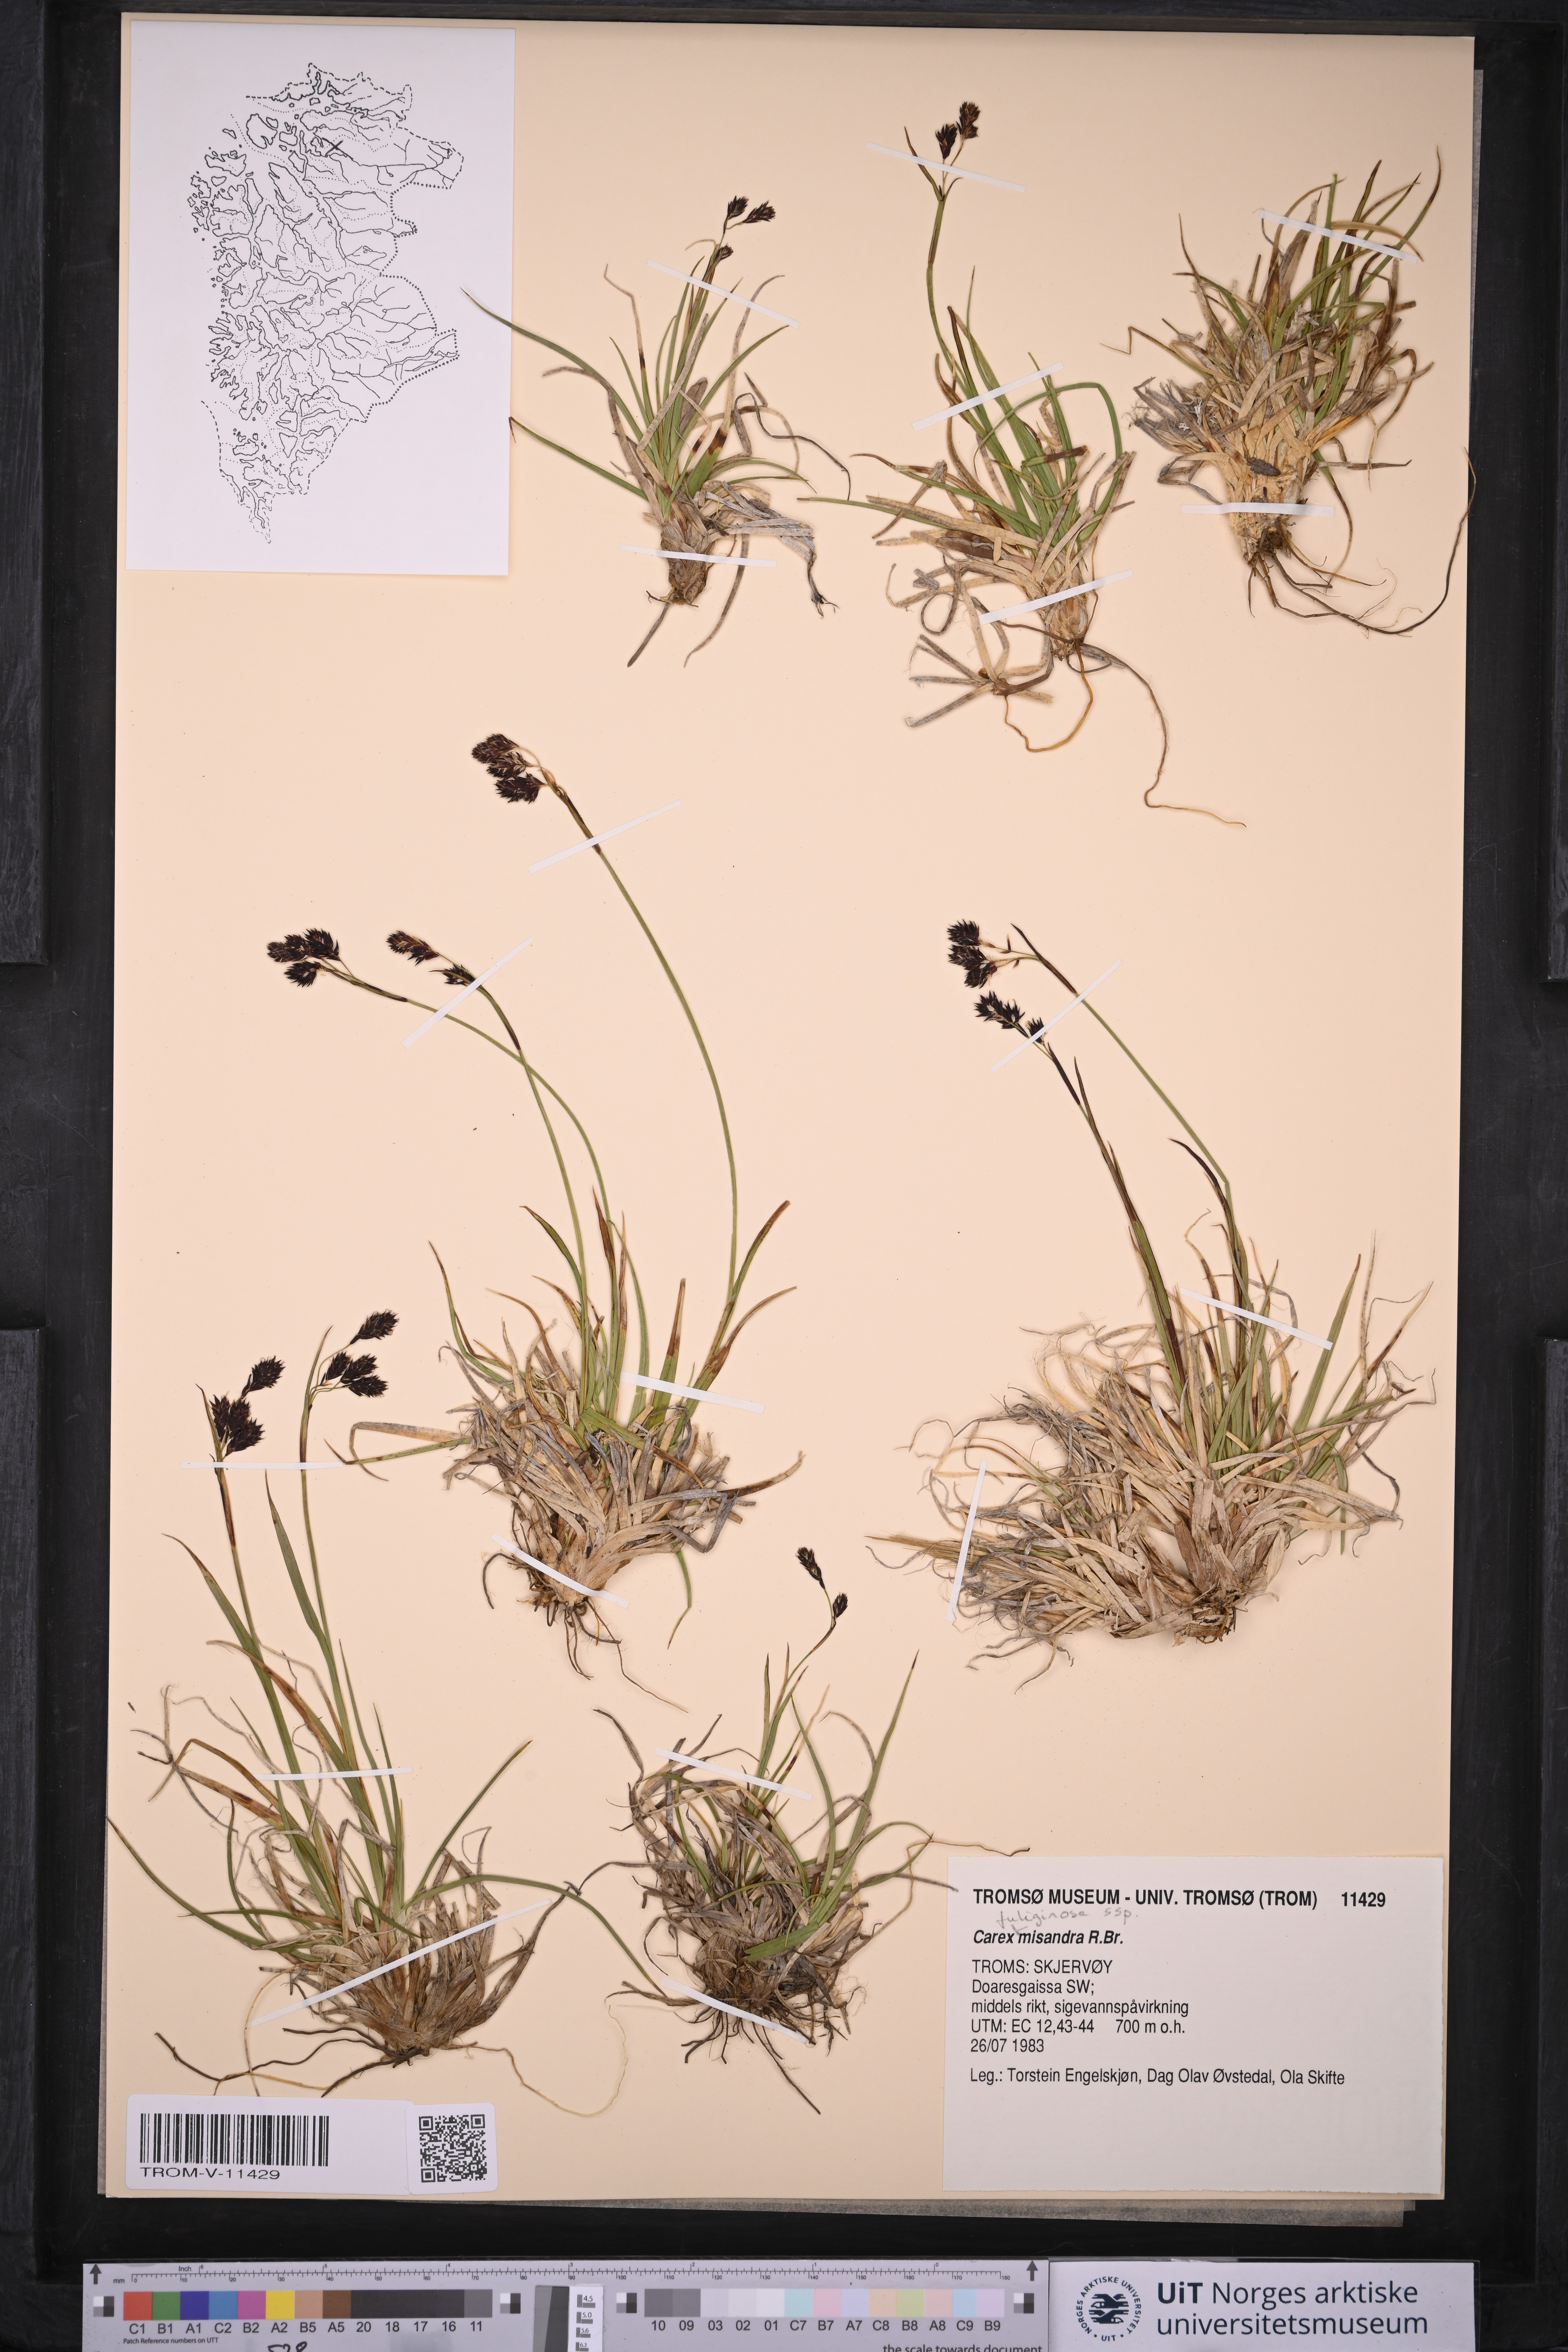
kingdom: Plantae
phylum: Tracheophyta
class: Liliopsida
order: Poales
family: Cyperaceae
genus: Carex
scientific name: Carex fuliginosa
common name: Few-flowered sedge
